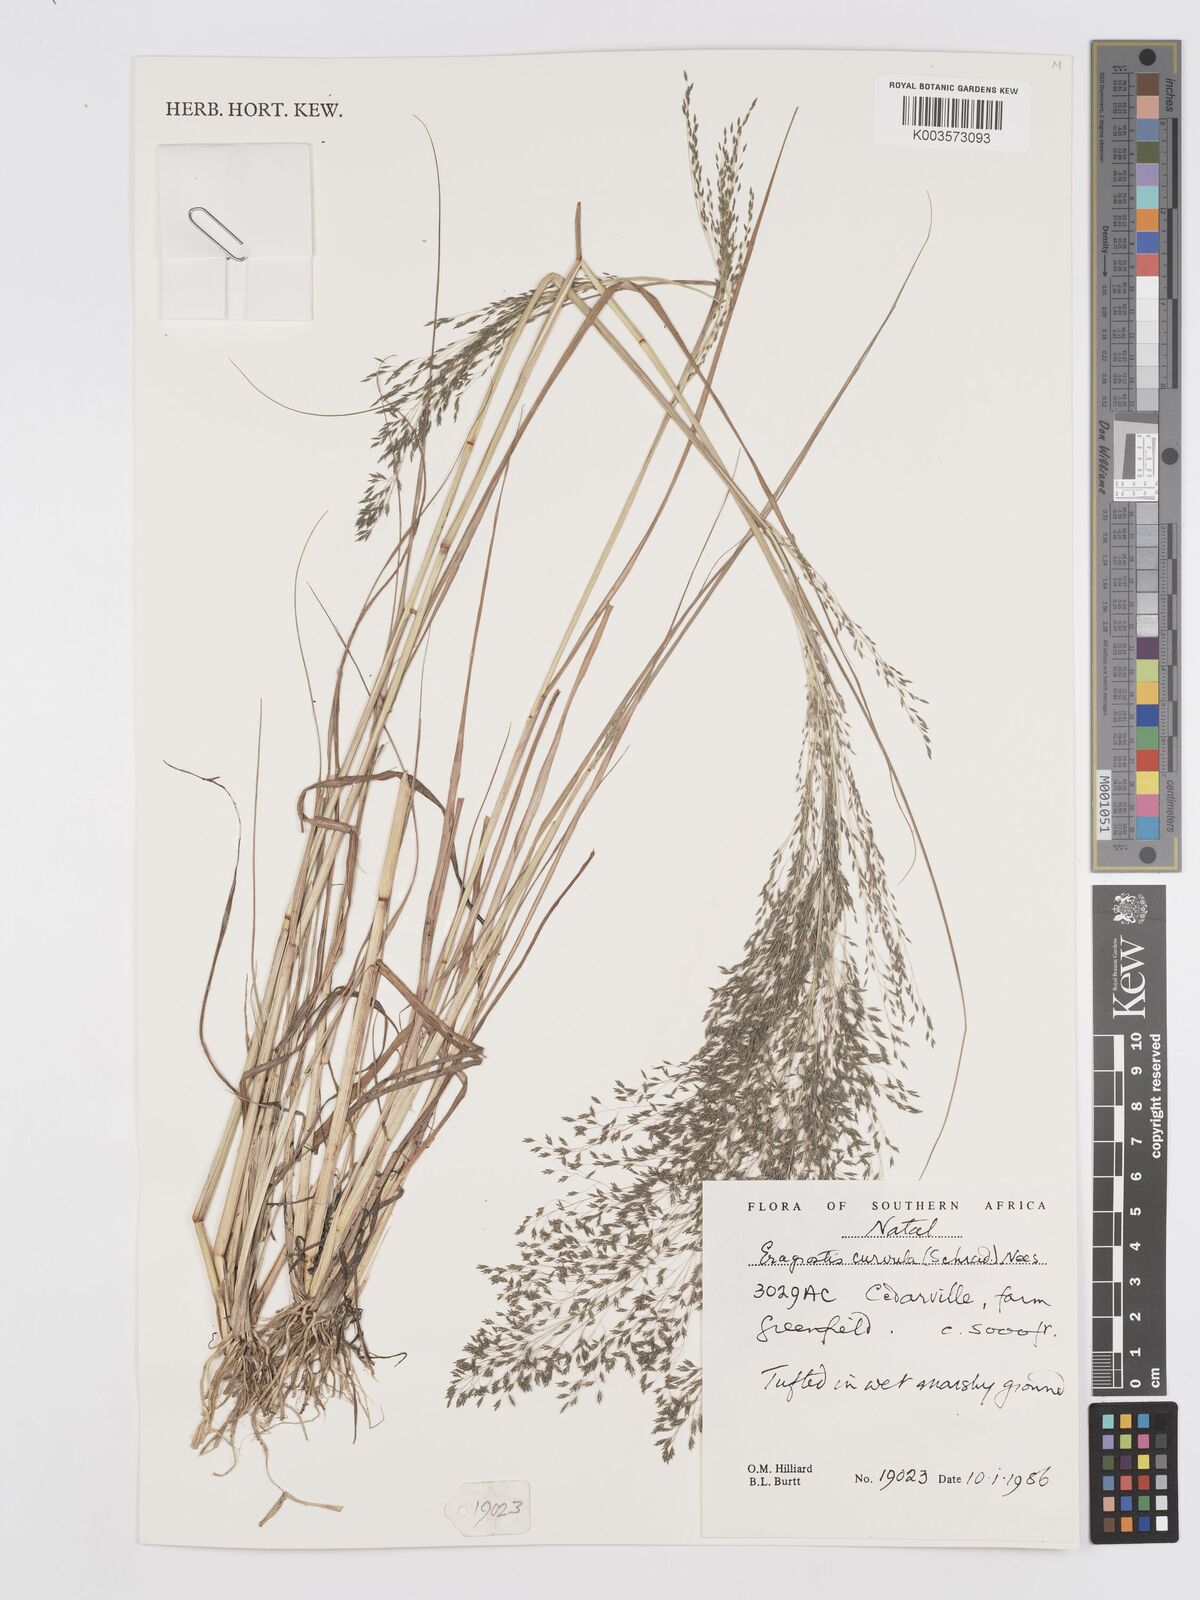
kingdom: Plantae
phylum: Tracheophyta
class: Liliopsida
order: Poales
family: Poaceae
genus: Eragrostis
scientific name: Eragrostis curvula
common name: African love-grass
